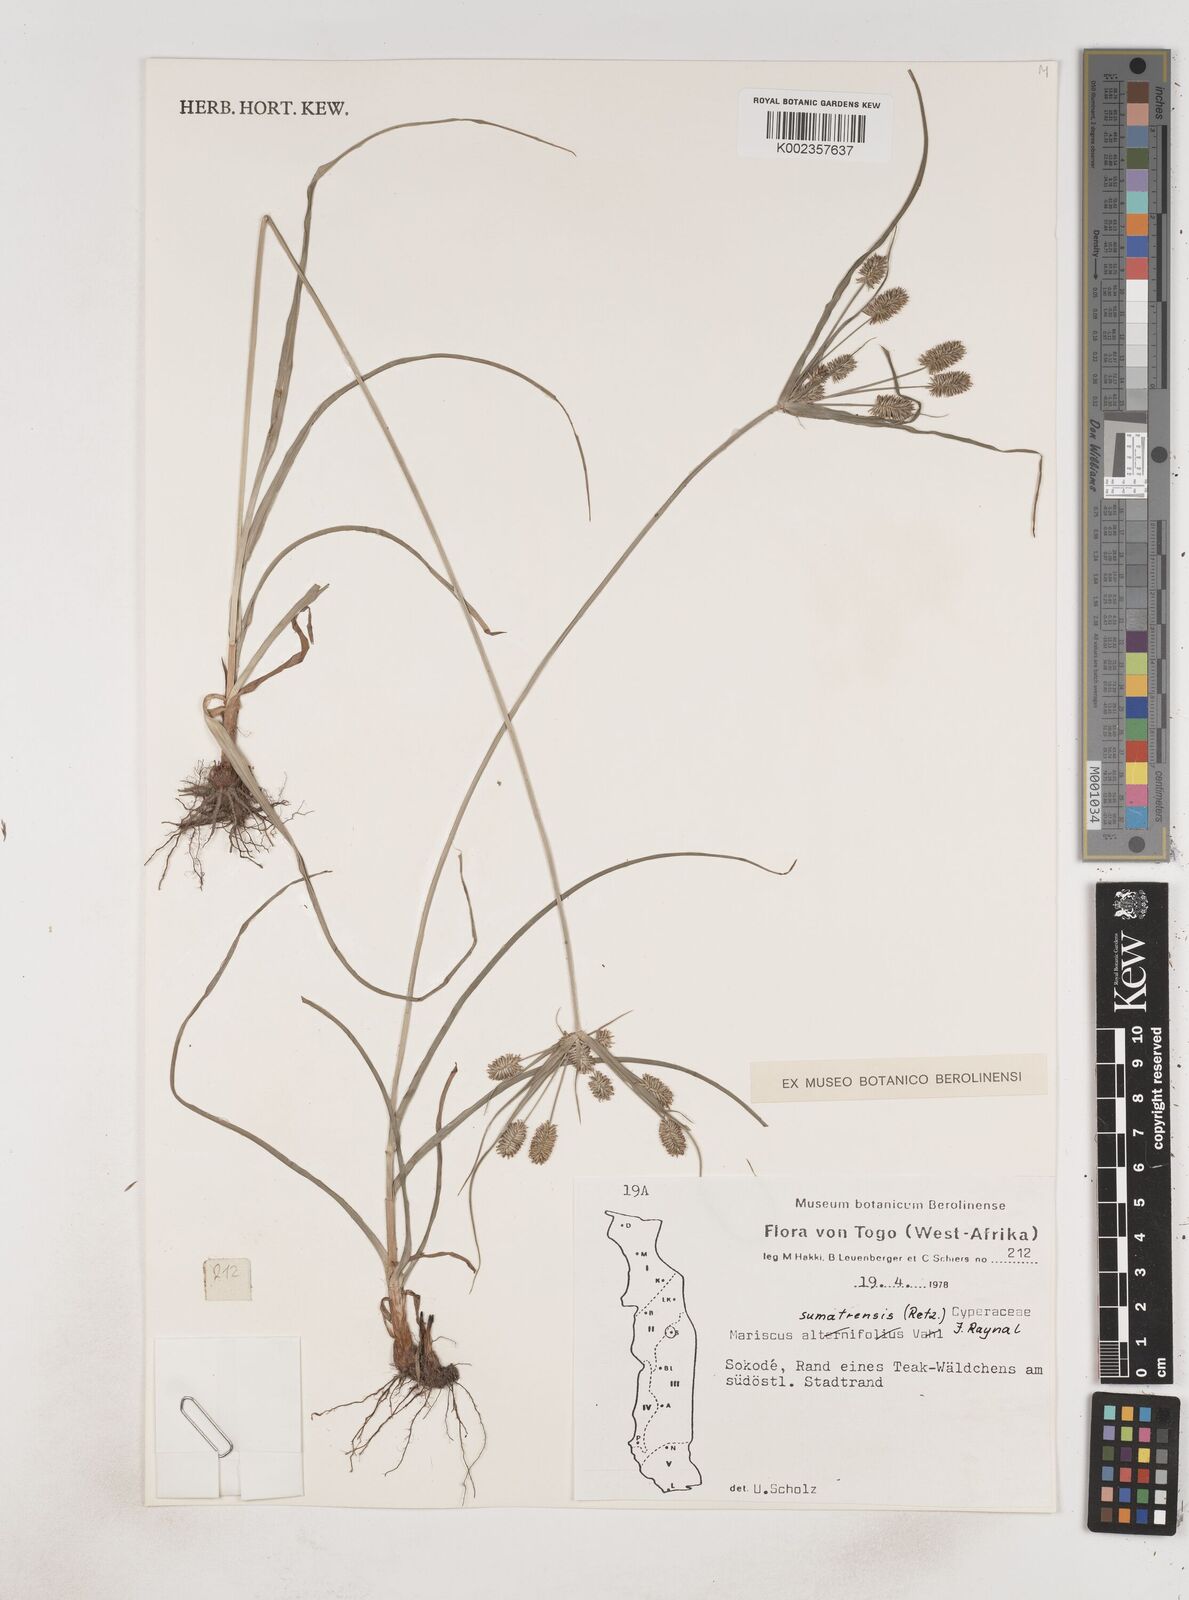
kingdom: Plantae
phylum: Tracheophyta
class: Liliopsida
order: Poales
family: Cyperaceae
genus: Cyperus
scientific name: Cyperus cyperoides
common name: Pacific island flat sedge
